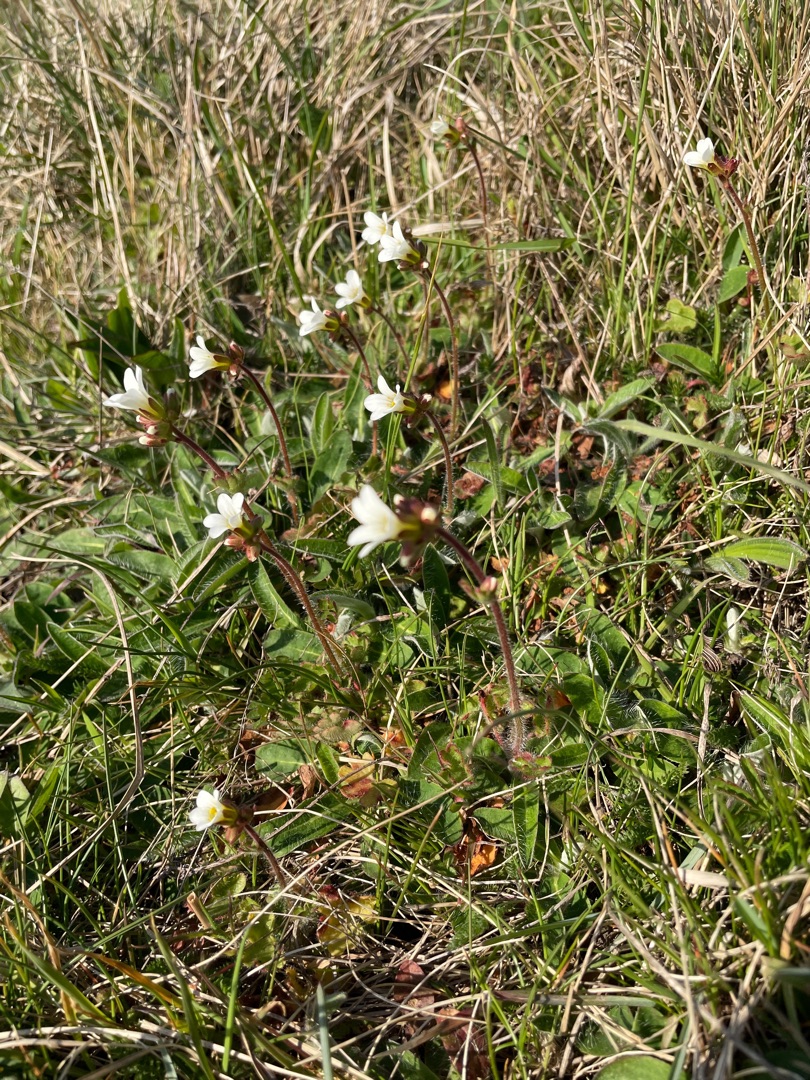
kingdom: Plantae
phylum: Tracheophyta
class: Magnoliopsida
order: Saxifragales
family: Saxifragaceae
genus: Saxifraga
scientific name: Saxifraga granulata
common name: Kornet stenbræk
